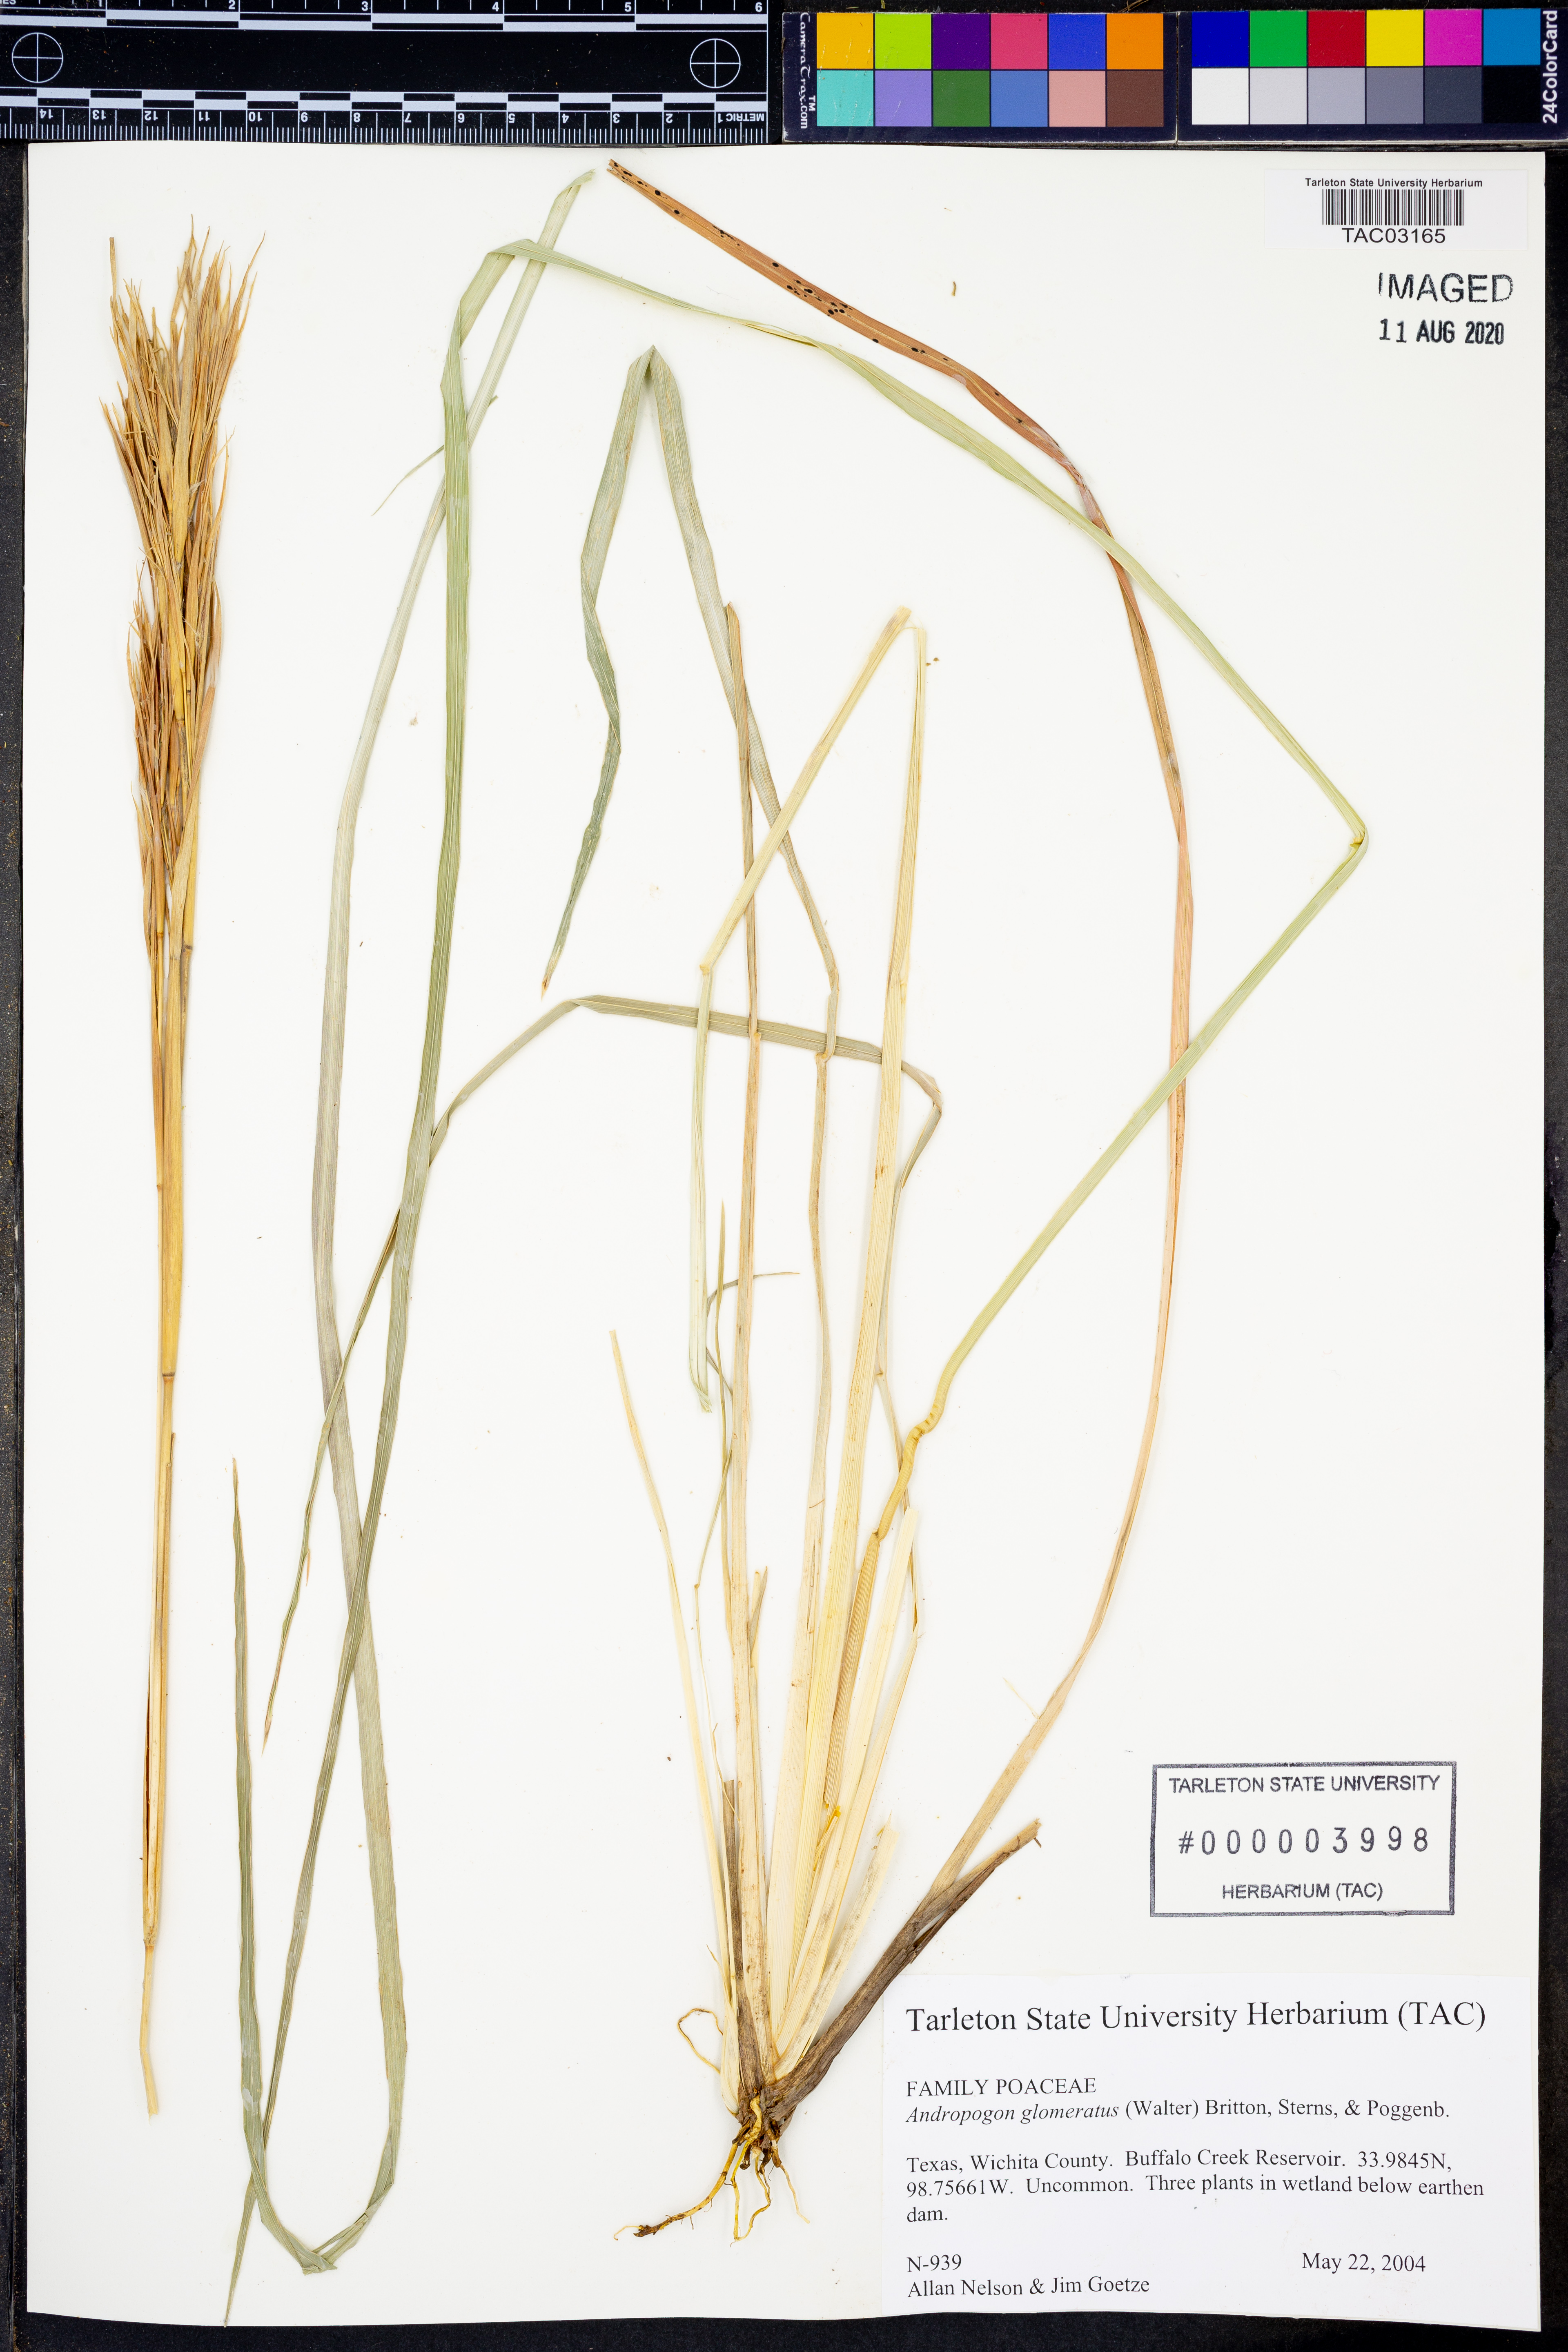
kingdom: Plantae
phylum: Tracheophyta
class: Liliopsida
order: Poales
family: Poaceae
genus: Andropogon
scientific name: Andropogon glomeratus
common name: Bushy beard grass
